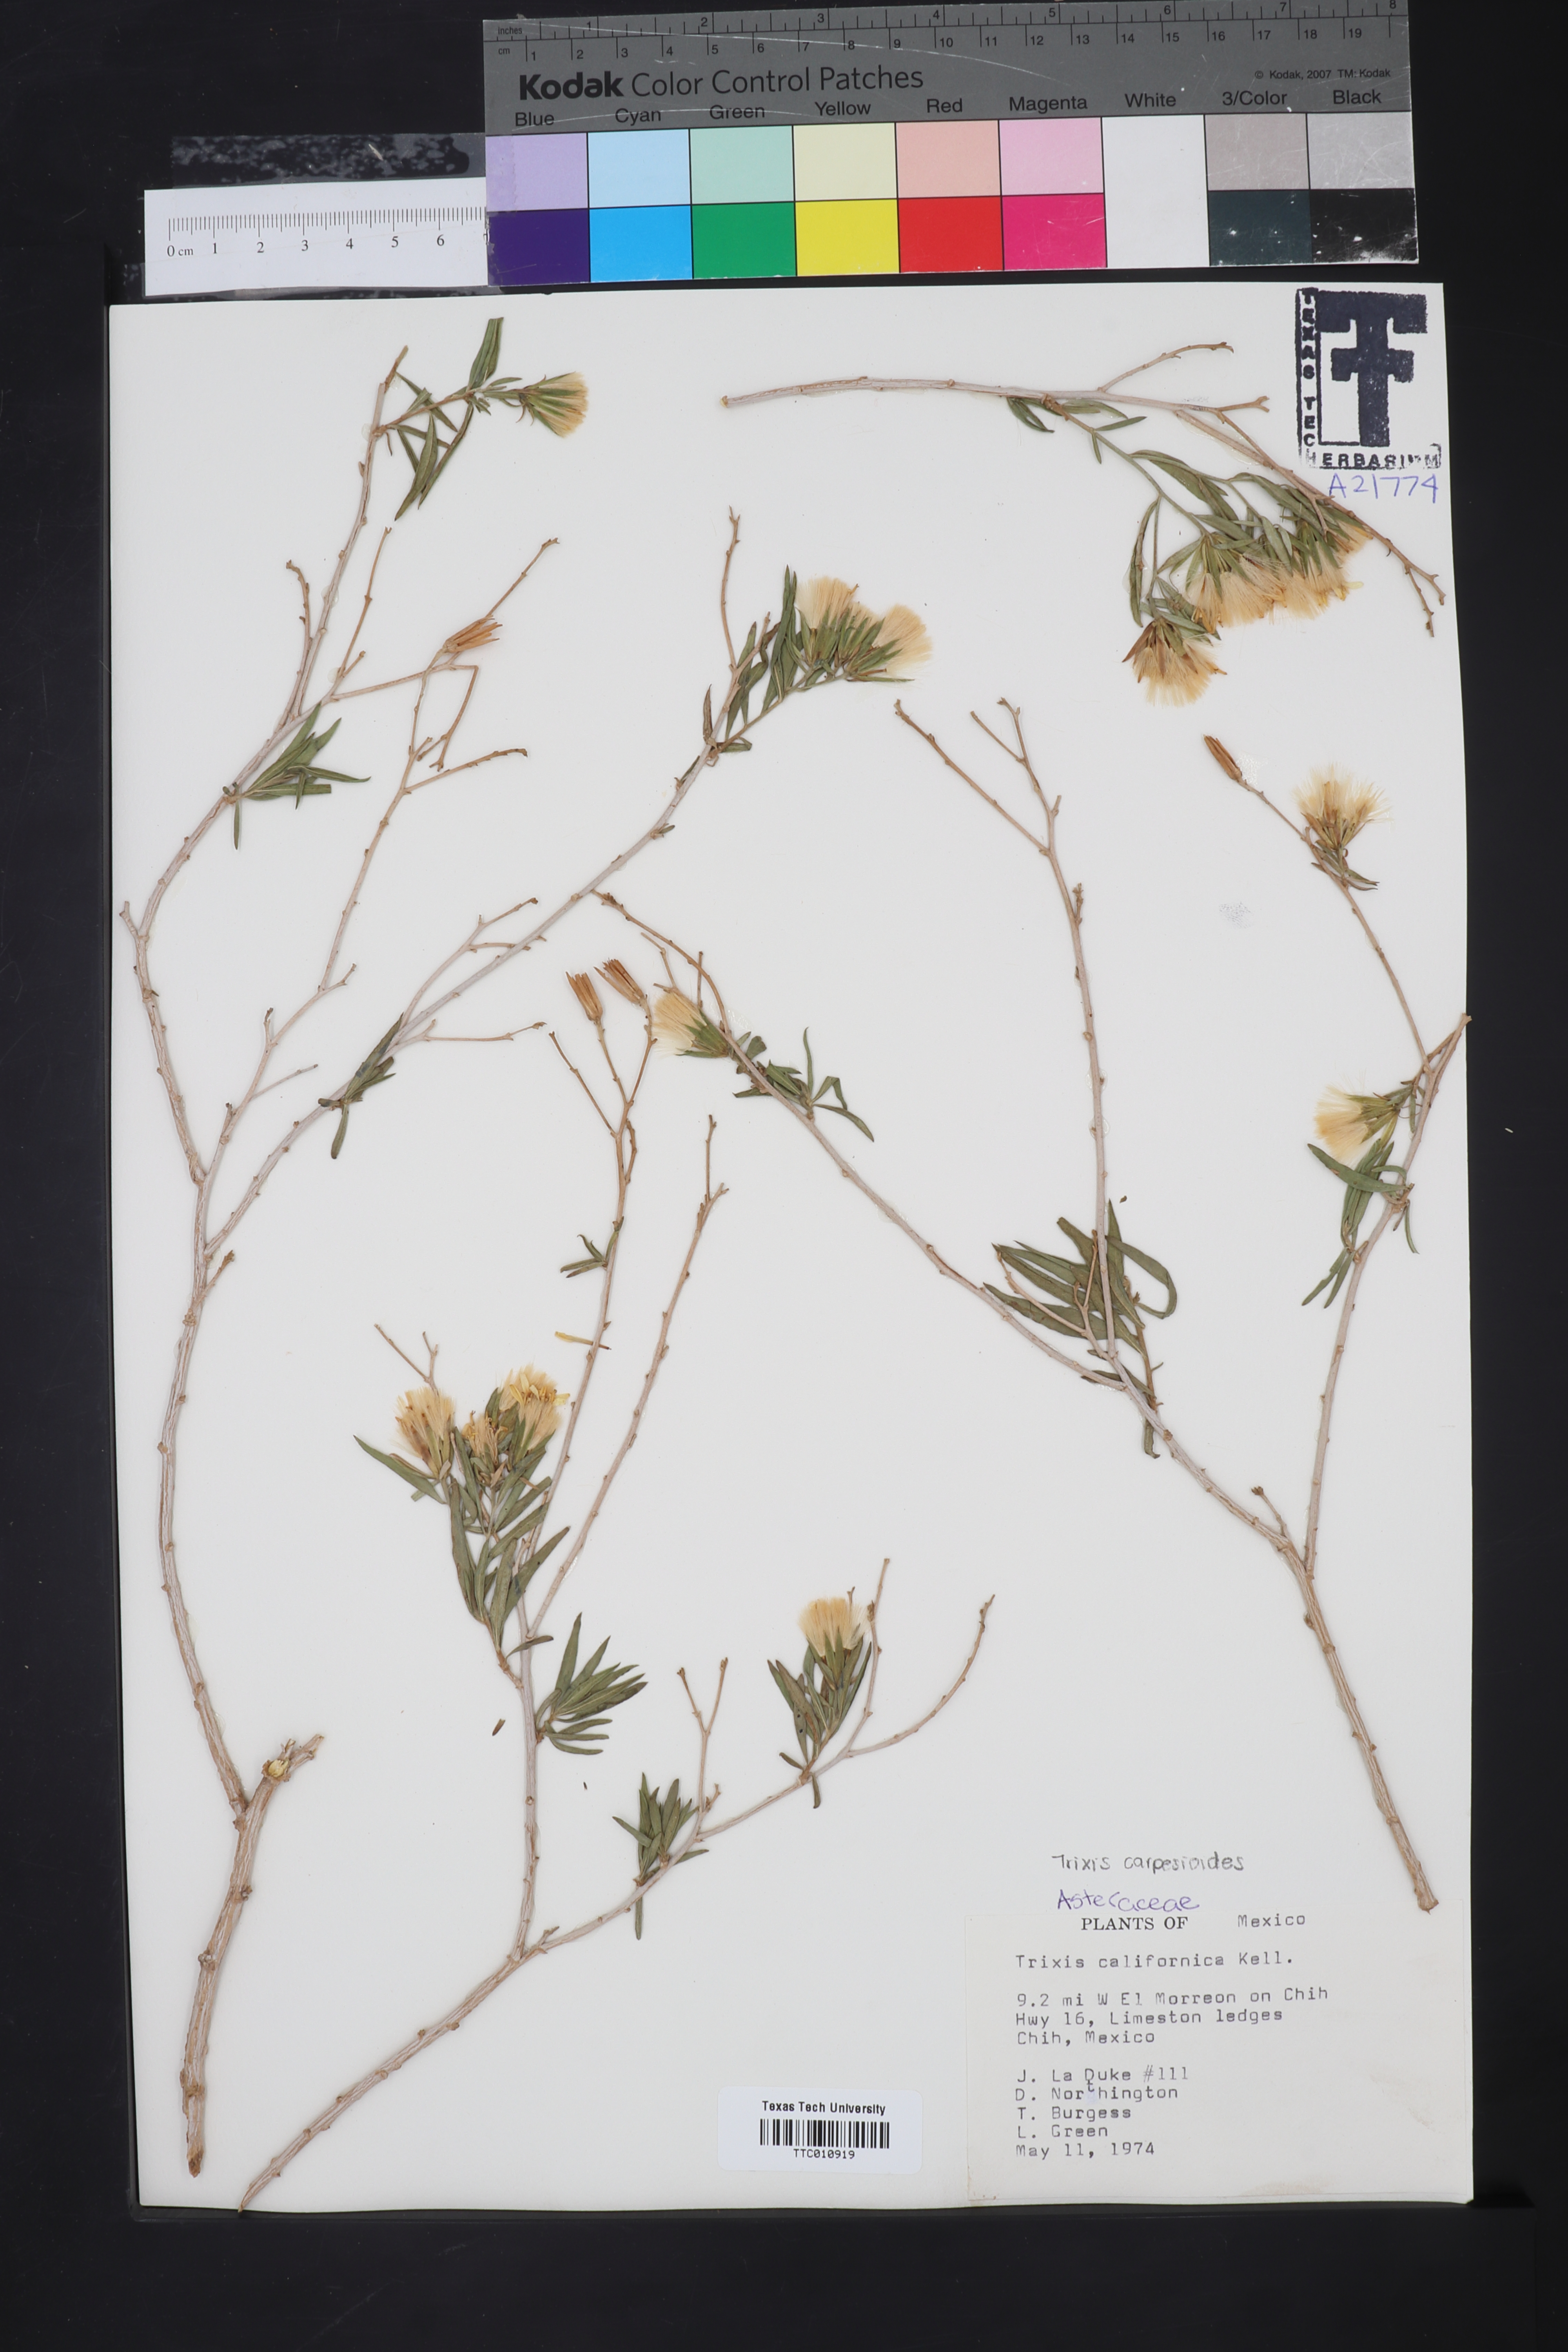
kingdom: Plantae
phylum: Tracheophyta
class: Magnoliopsida
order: Asterales
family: Asteraceae
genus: Trixis
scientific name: Trixis californica
